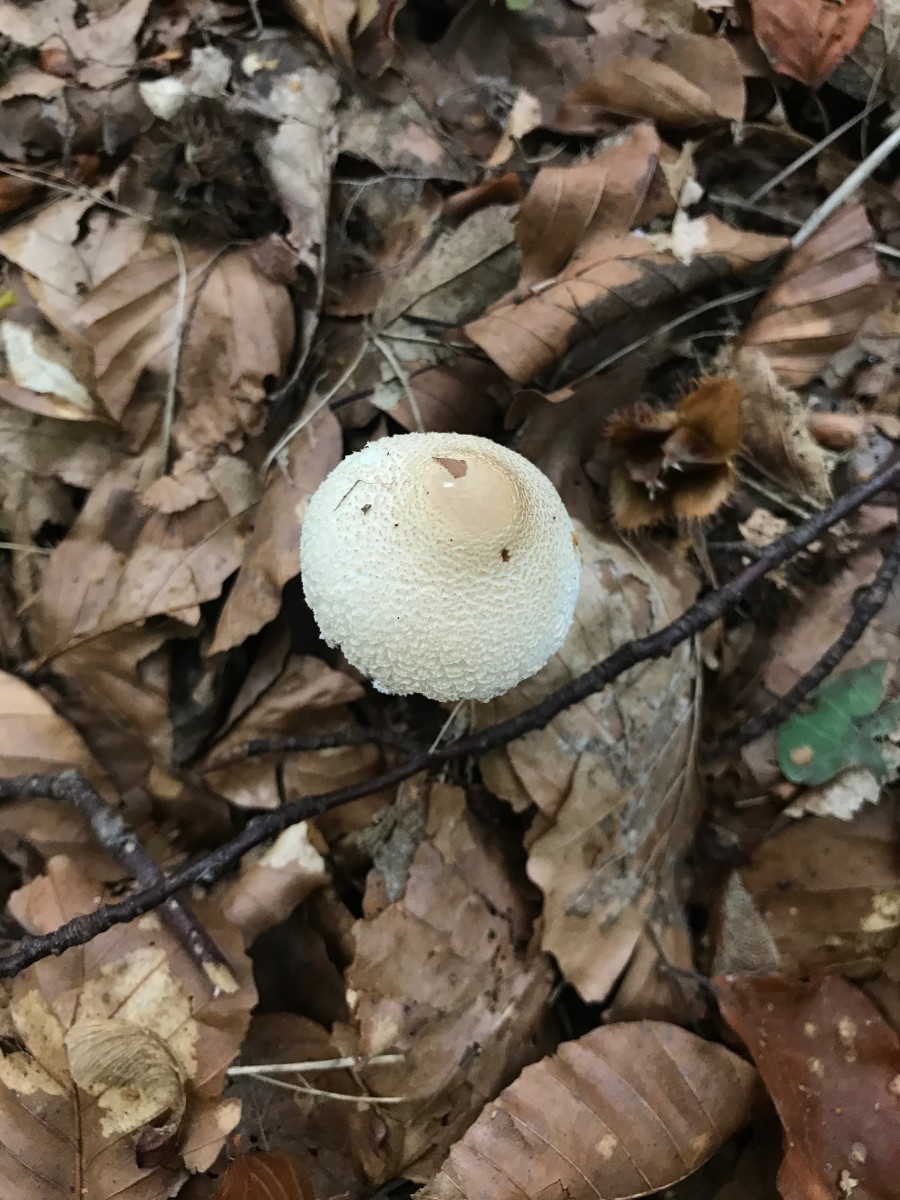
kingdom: Fungi
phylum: Basidiomycota
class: Agaricomycetes
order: Agaricales
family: Agaricaceae
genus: Lepiota
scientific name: Lepiota clypeolaria
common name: flosset parasolhat
